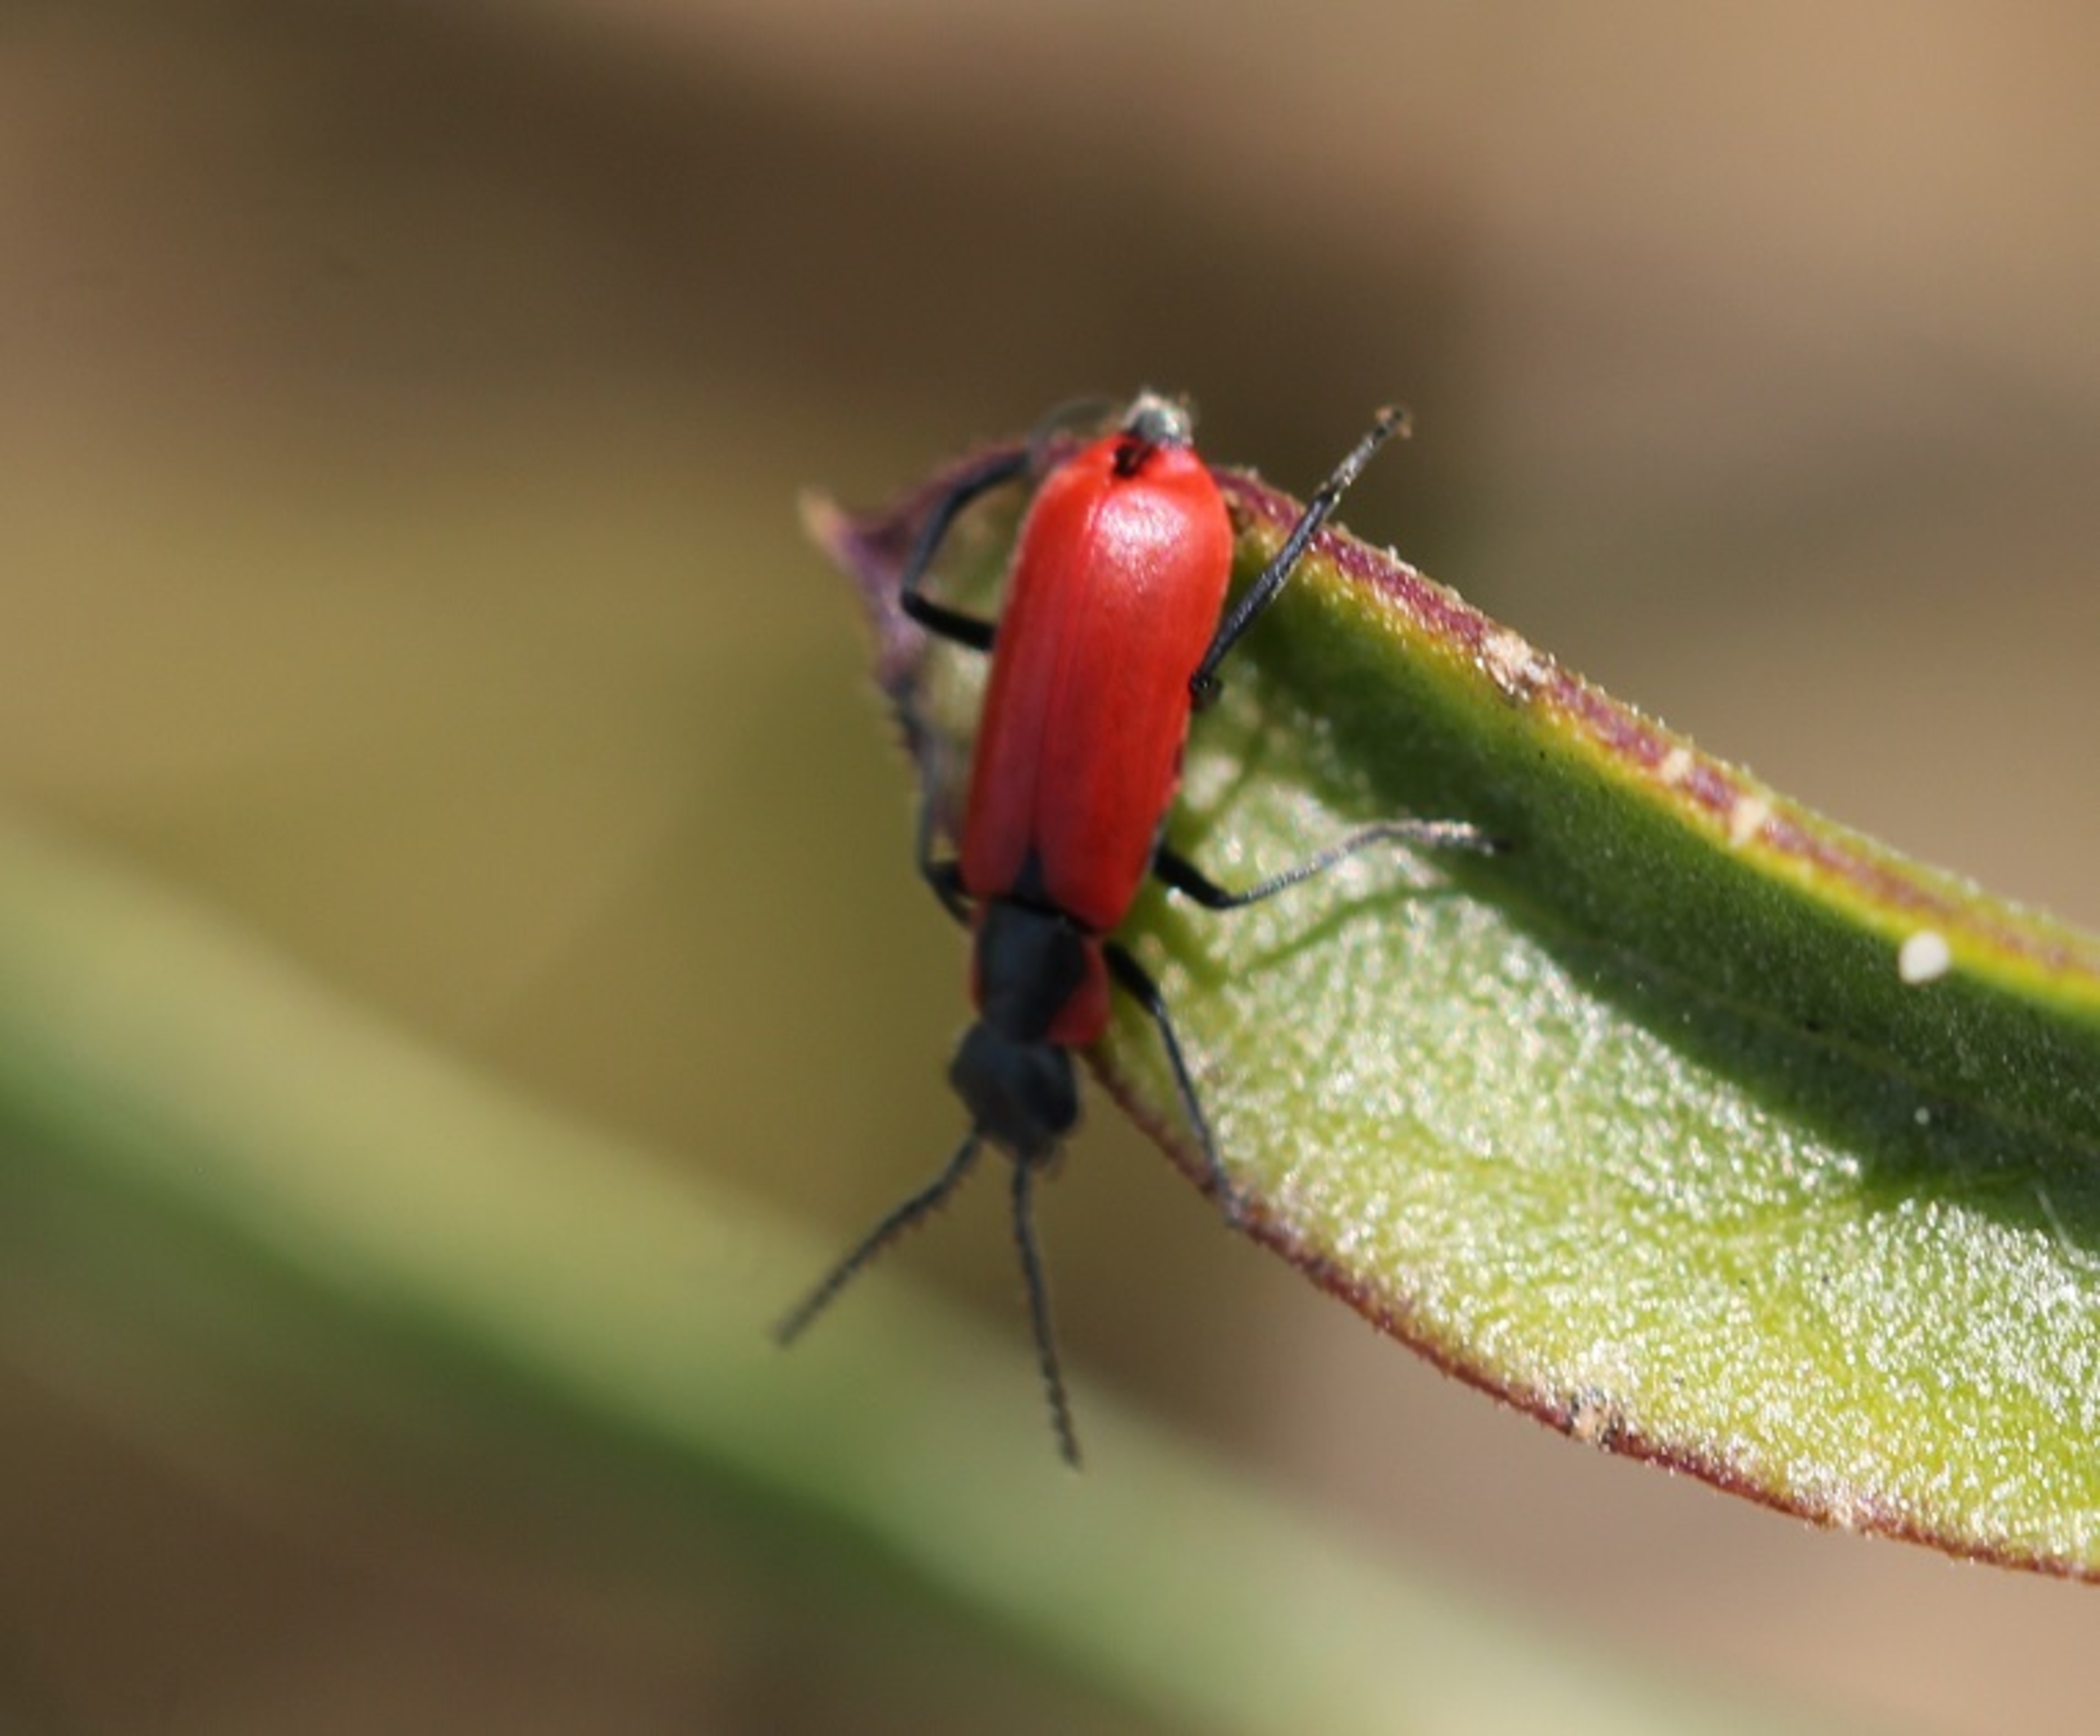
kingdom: Animalia
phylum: Arthropoda
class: Insecta
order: Coleoptera
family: Melyridae
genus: Anthocomus
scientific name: Anthocomus rufus
